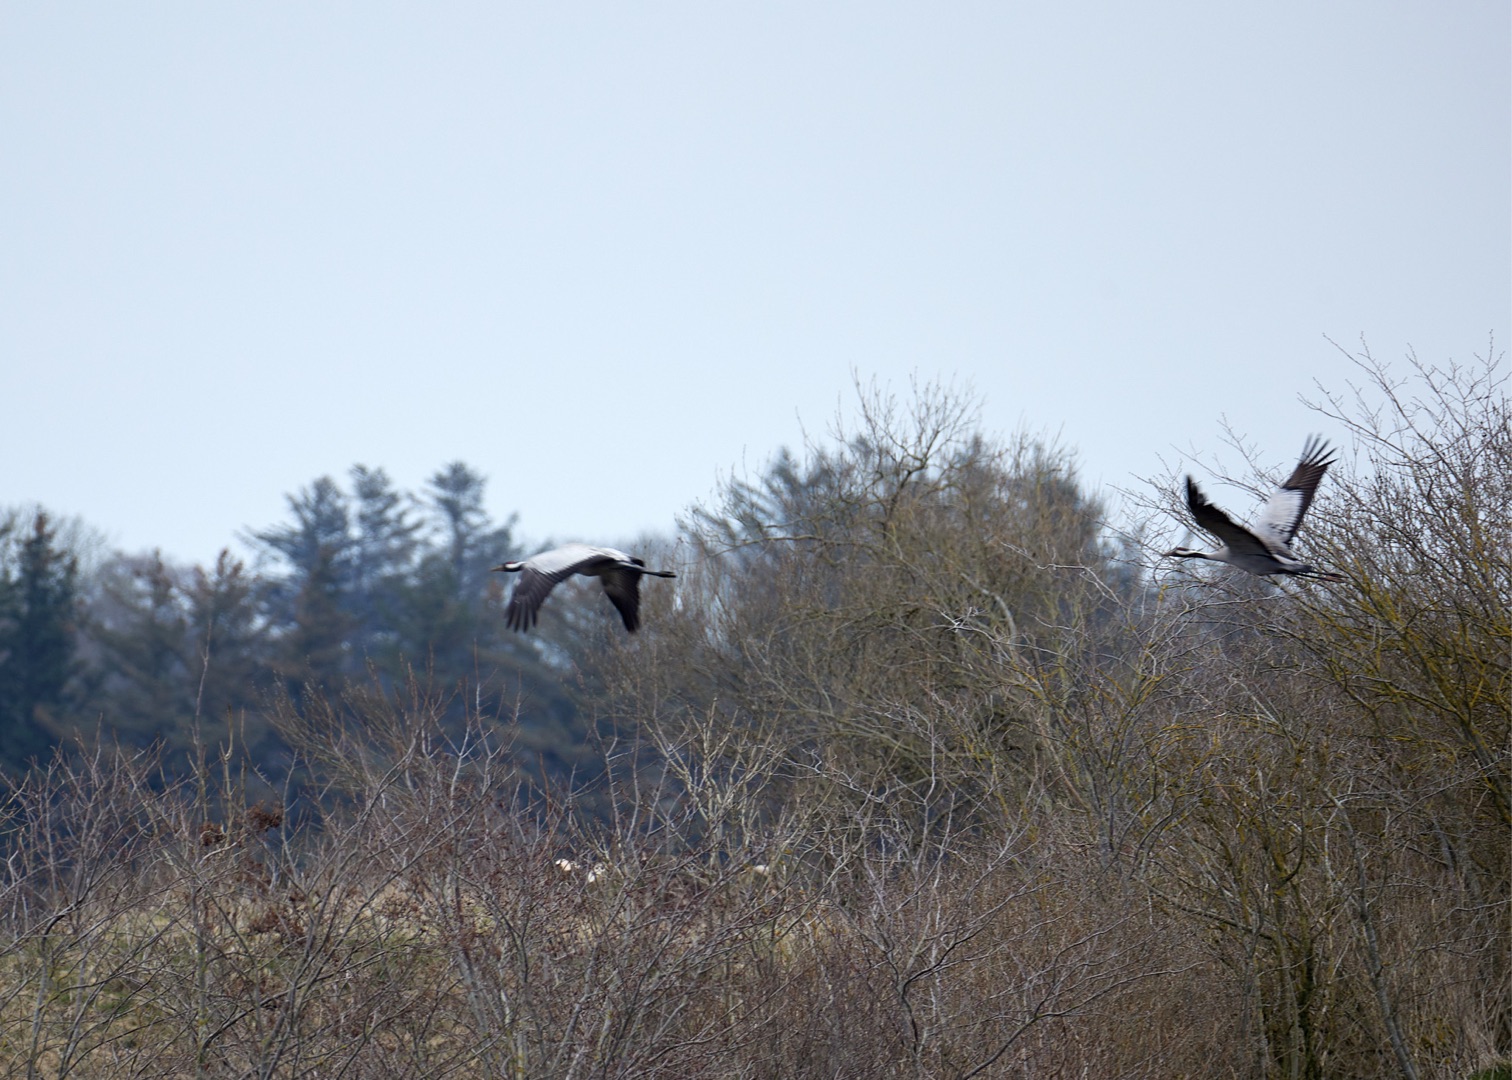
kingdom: Animalia
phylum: Chordata
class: Aves
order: Gruiformes
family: Gruidae
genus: Grus
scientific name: Grus grus
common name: Trane
